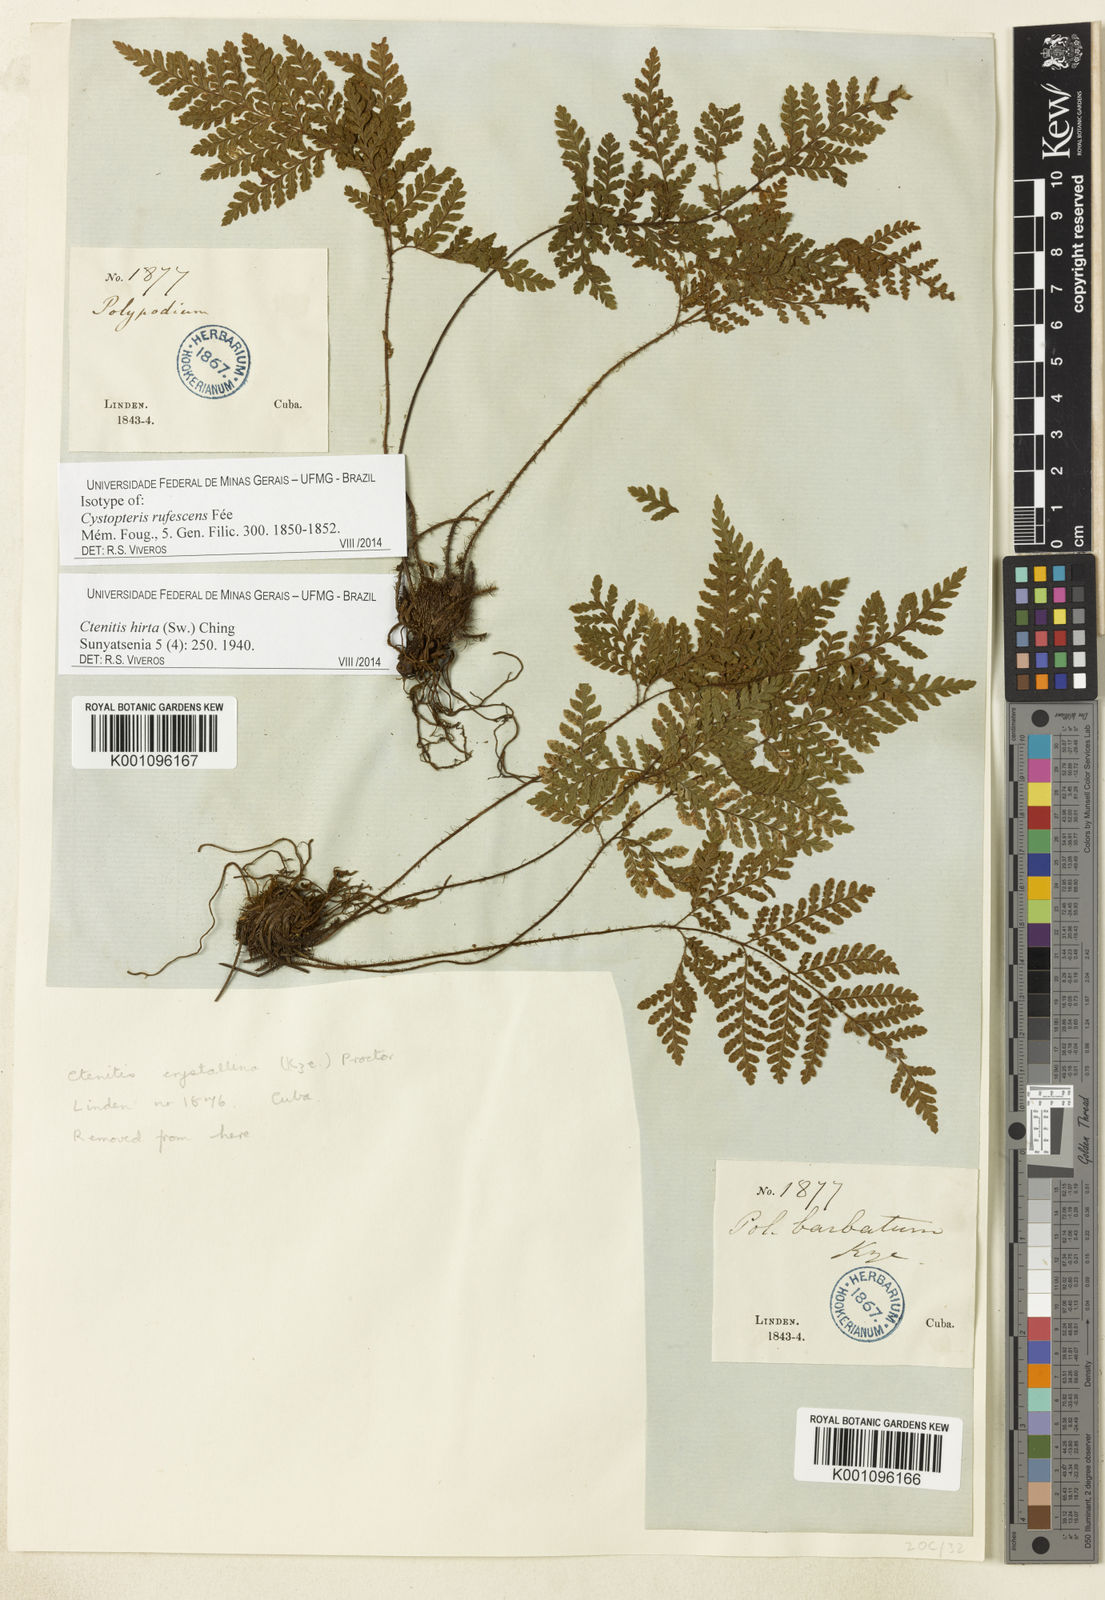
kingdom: Plantae
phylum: Tracheophyta
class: Polypodiopsida
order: Polypodiales
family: Dryopteridaceae
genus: Ctenitis
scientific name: Ctenitis hirta
